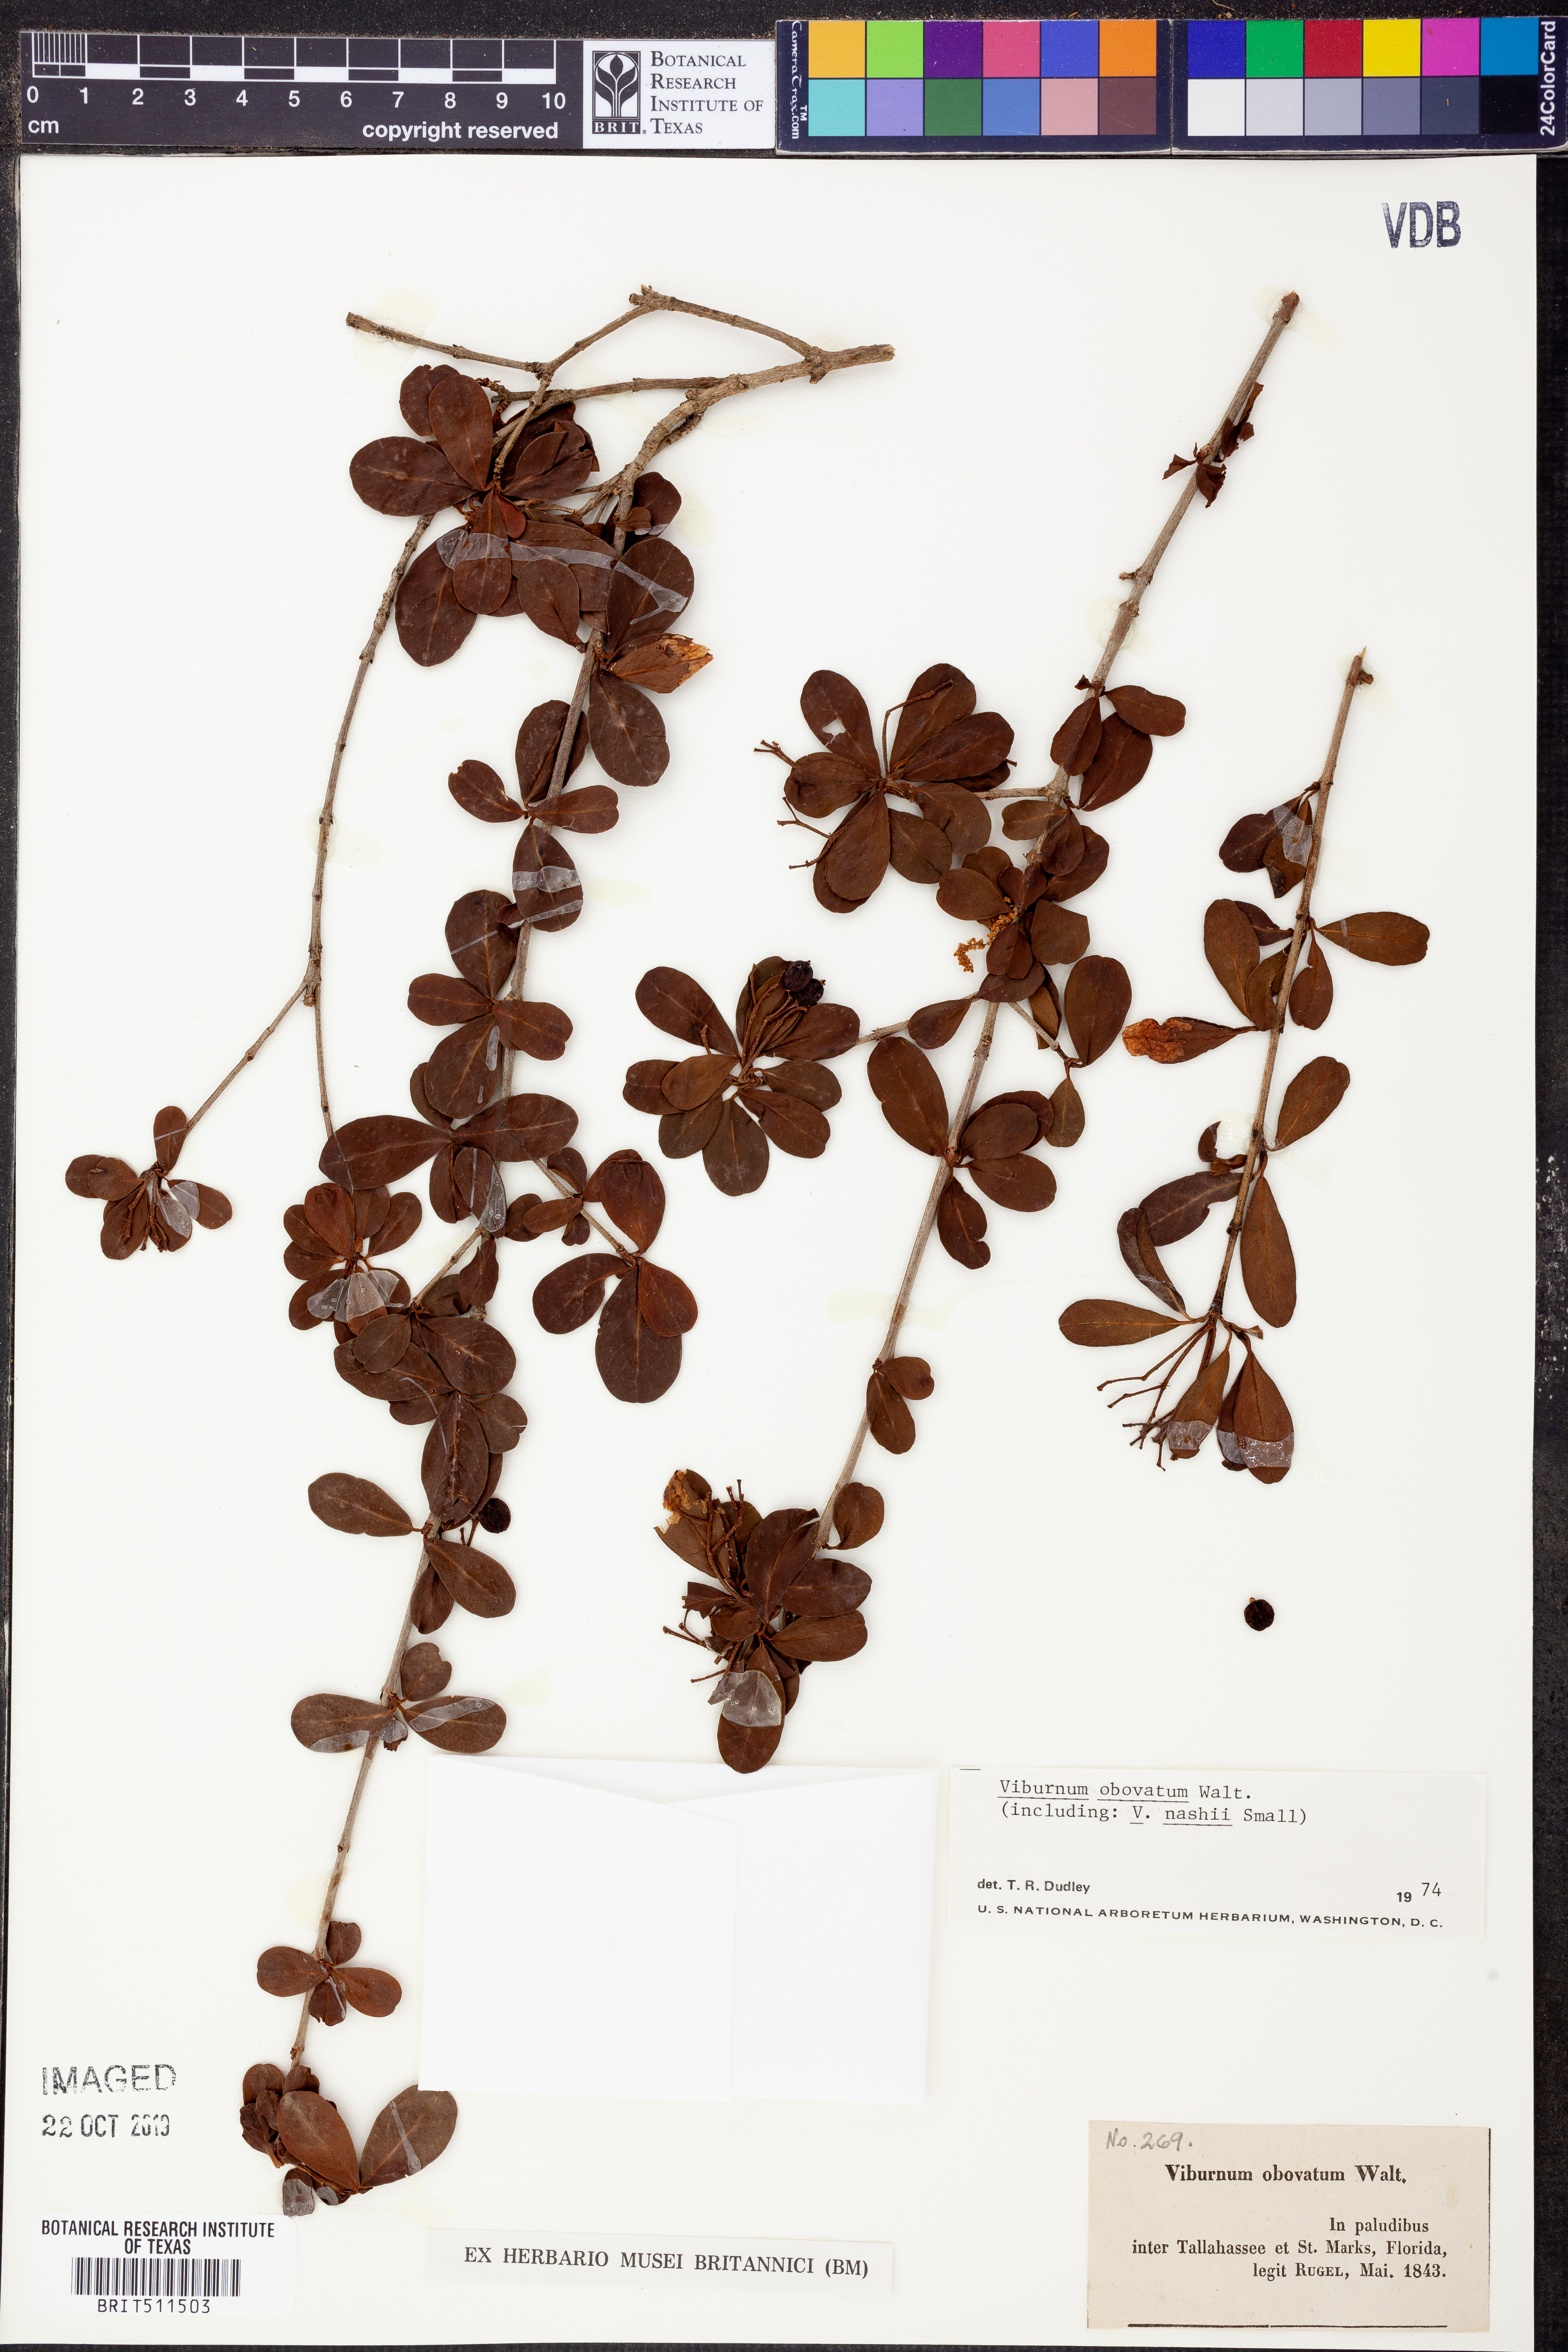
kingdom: Plantae
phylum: Tracheophyta
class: Magnoliopsida
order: Dipsacales
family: Viburnaceae
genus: Viburnum
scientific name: Viburnum obovatum
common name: Walter's viburnum
